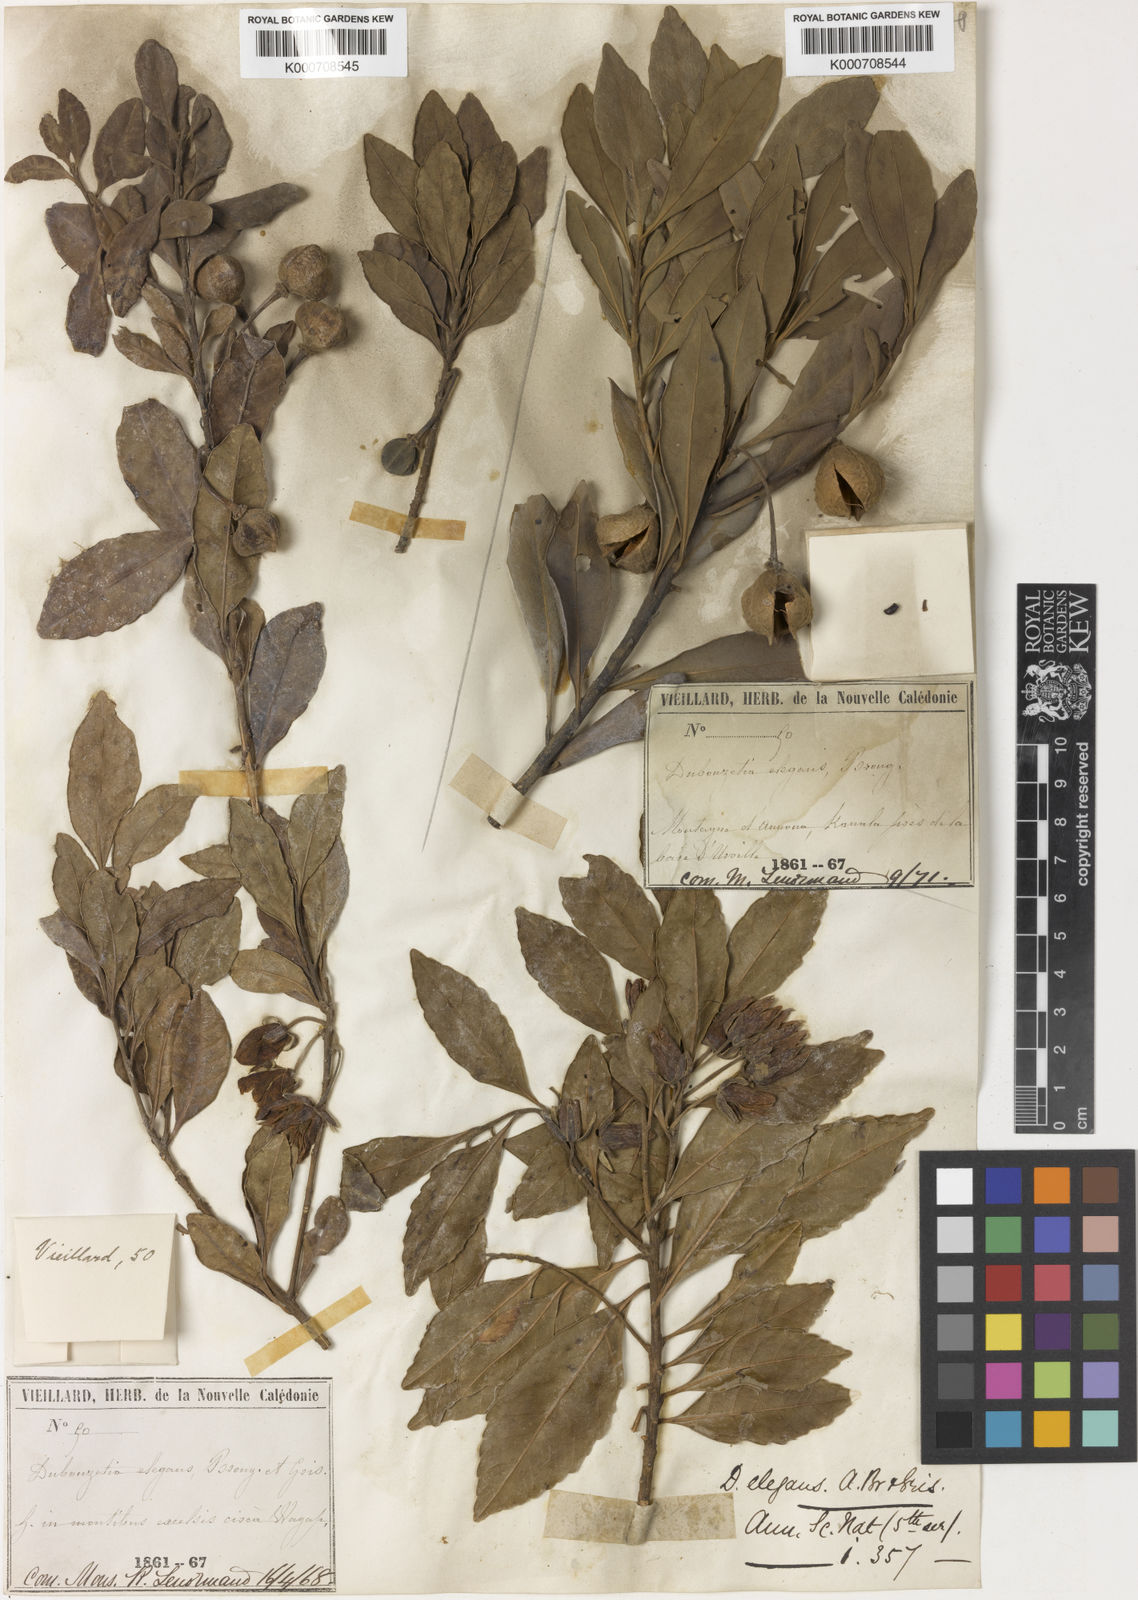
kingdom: Plantae
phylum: Tracheophyta
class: Magnoliopsida
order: Oxalidales
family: Elaeocarpaceae
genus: Dubouzetia
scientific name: Dubouzetia elegans
